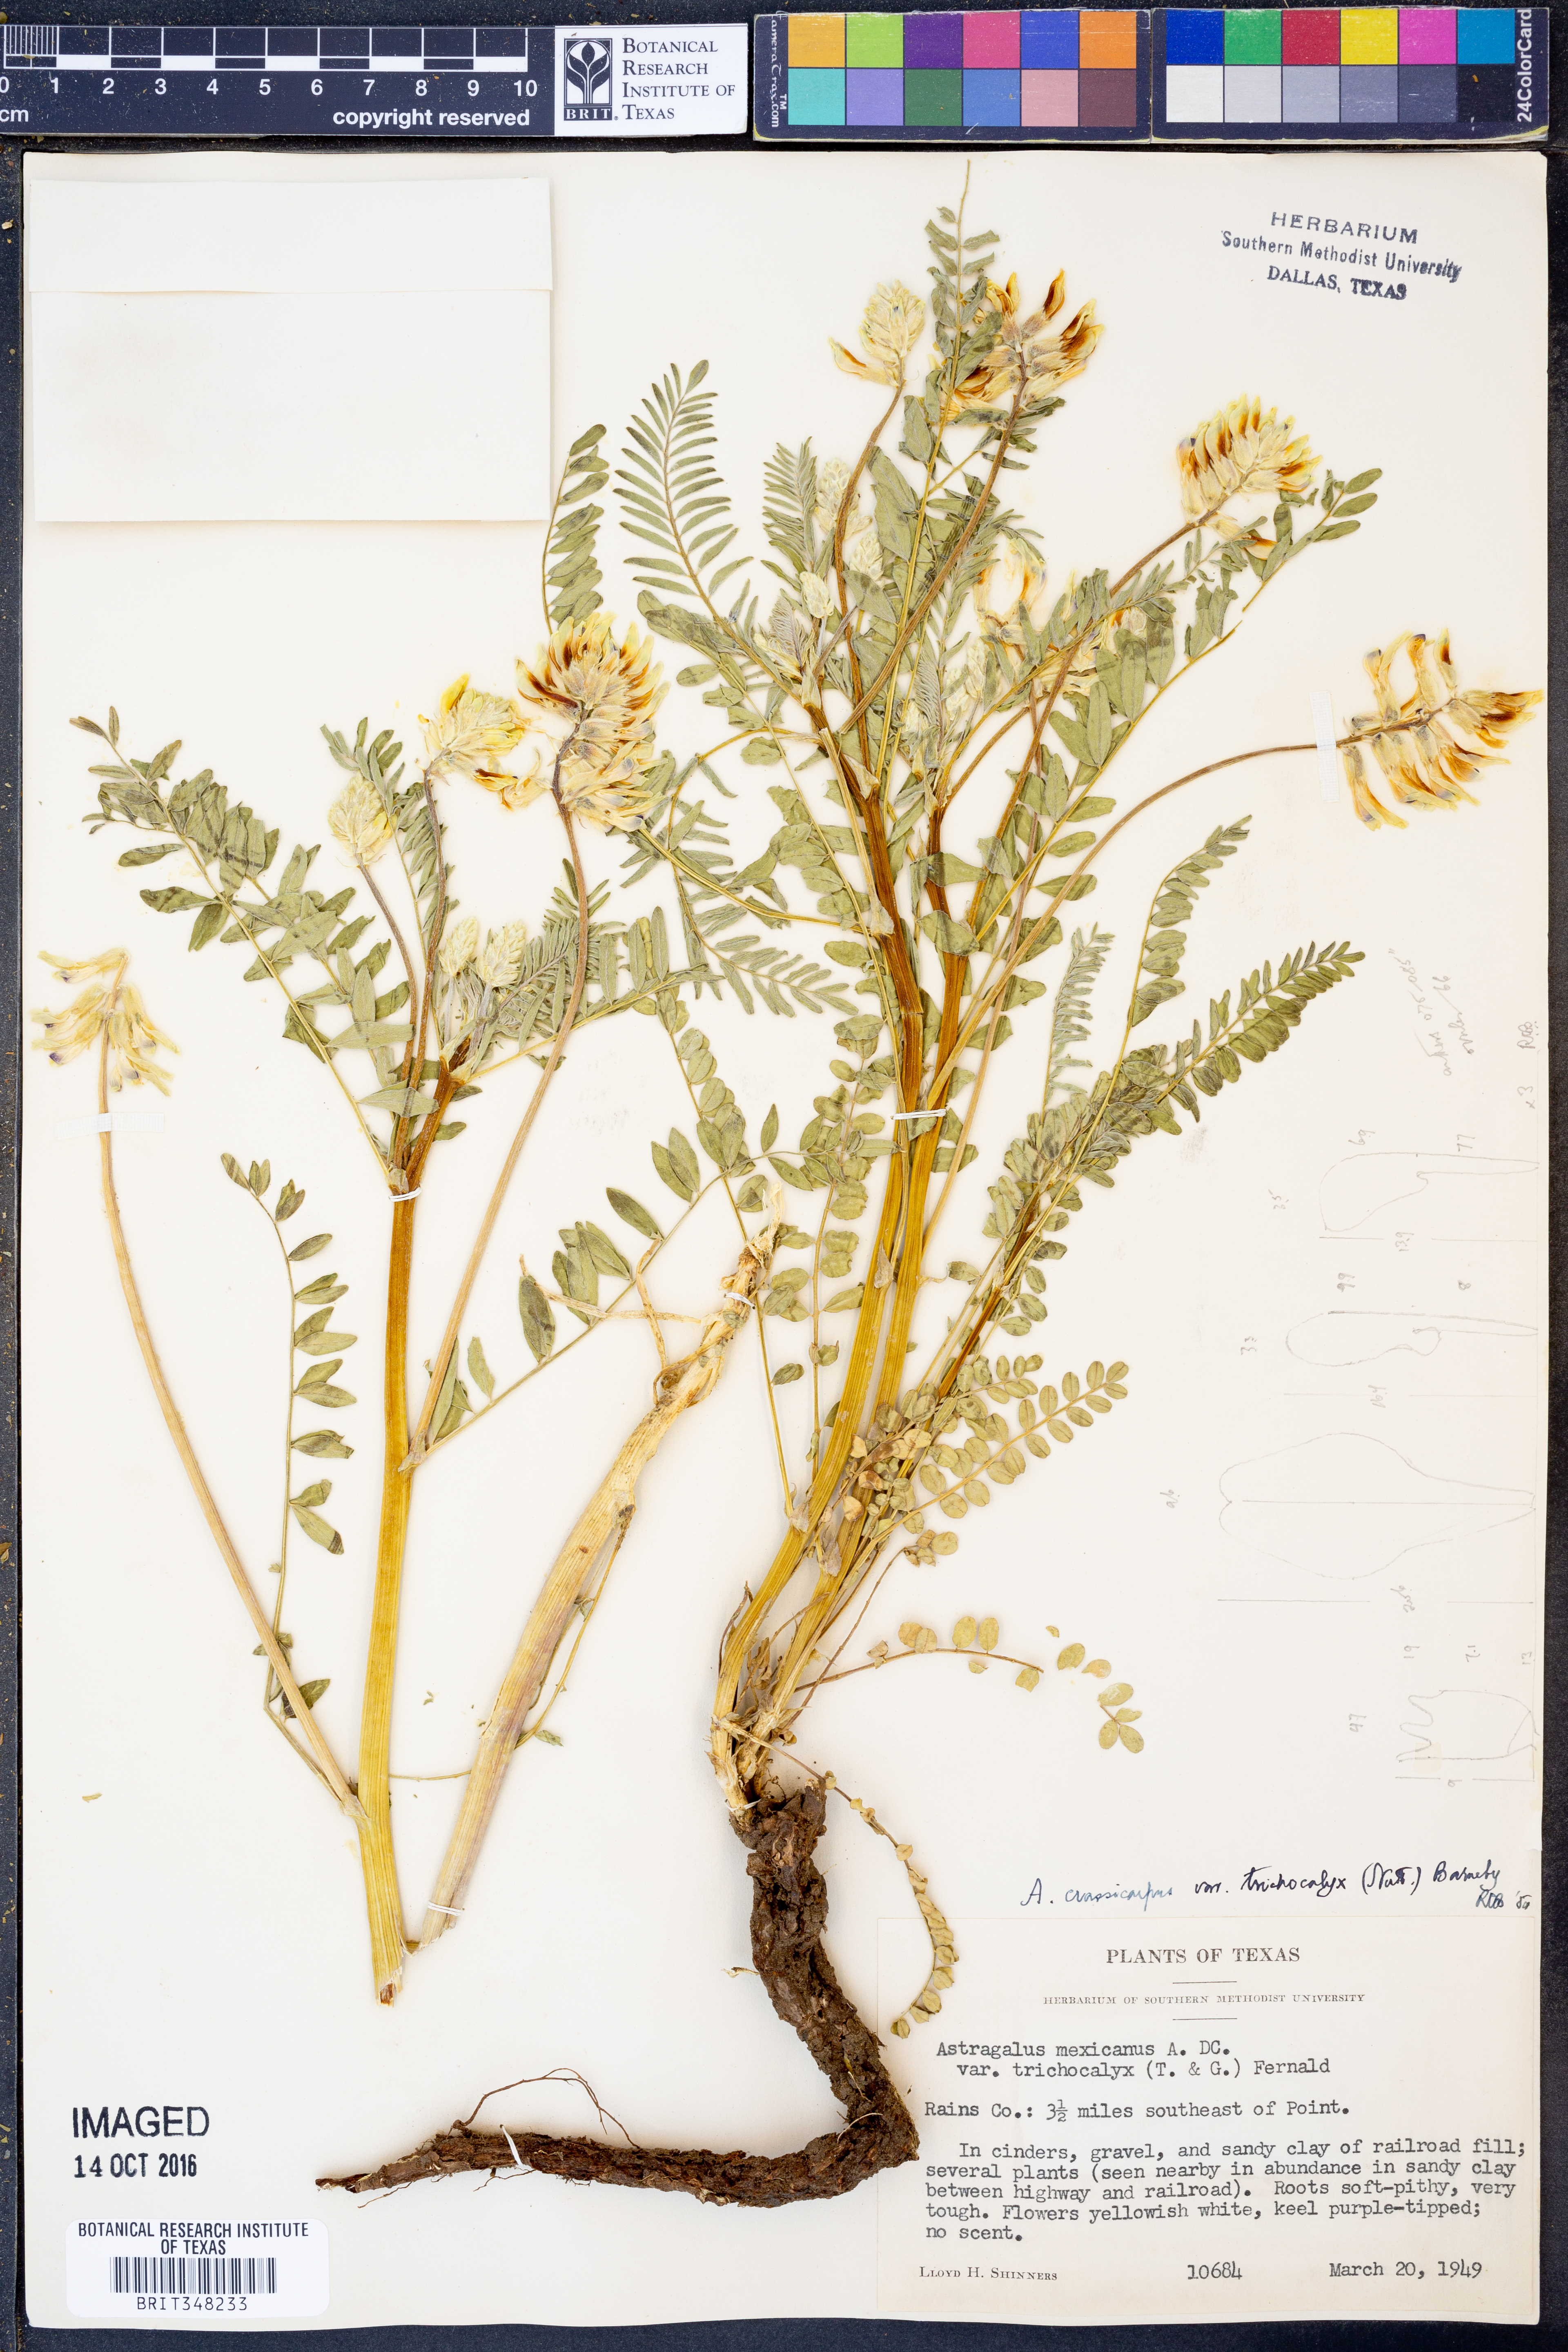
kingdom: Plantae
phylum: Tracheophyta
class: Magnoliopsida
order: Fabales
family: Fabaceae
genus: Astragalus
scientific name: Astragalus crassicarpus
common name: Ground-plum milk-vetch
